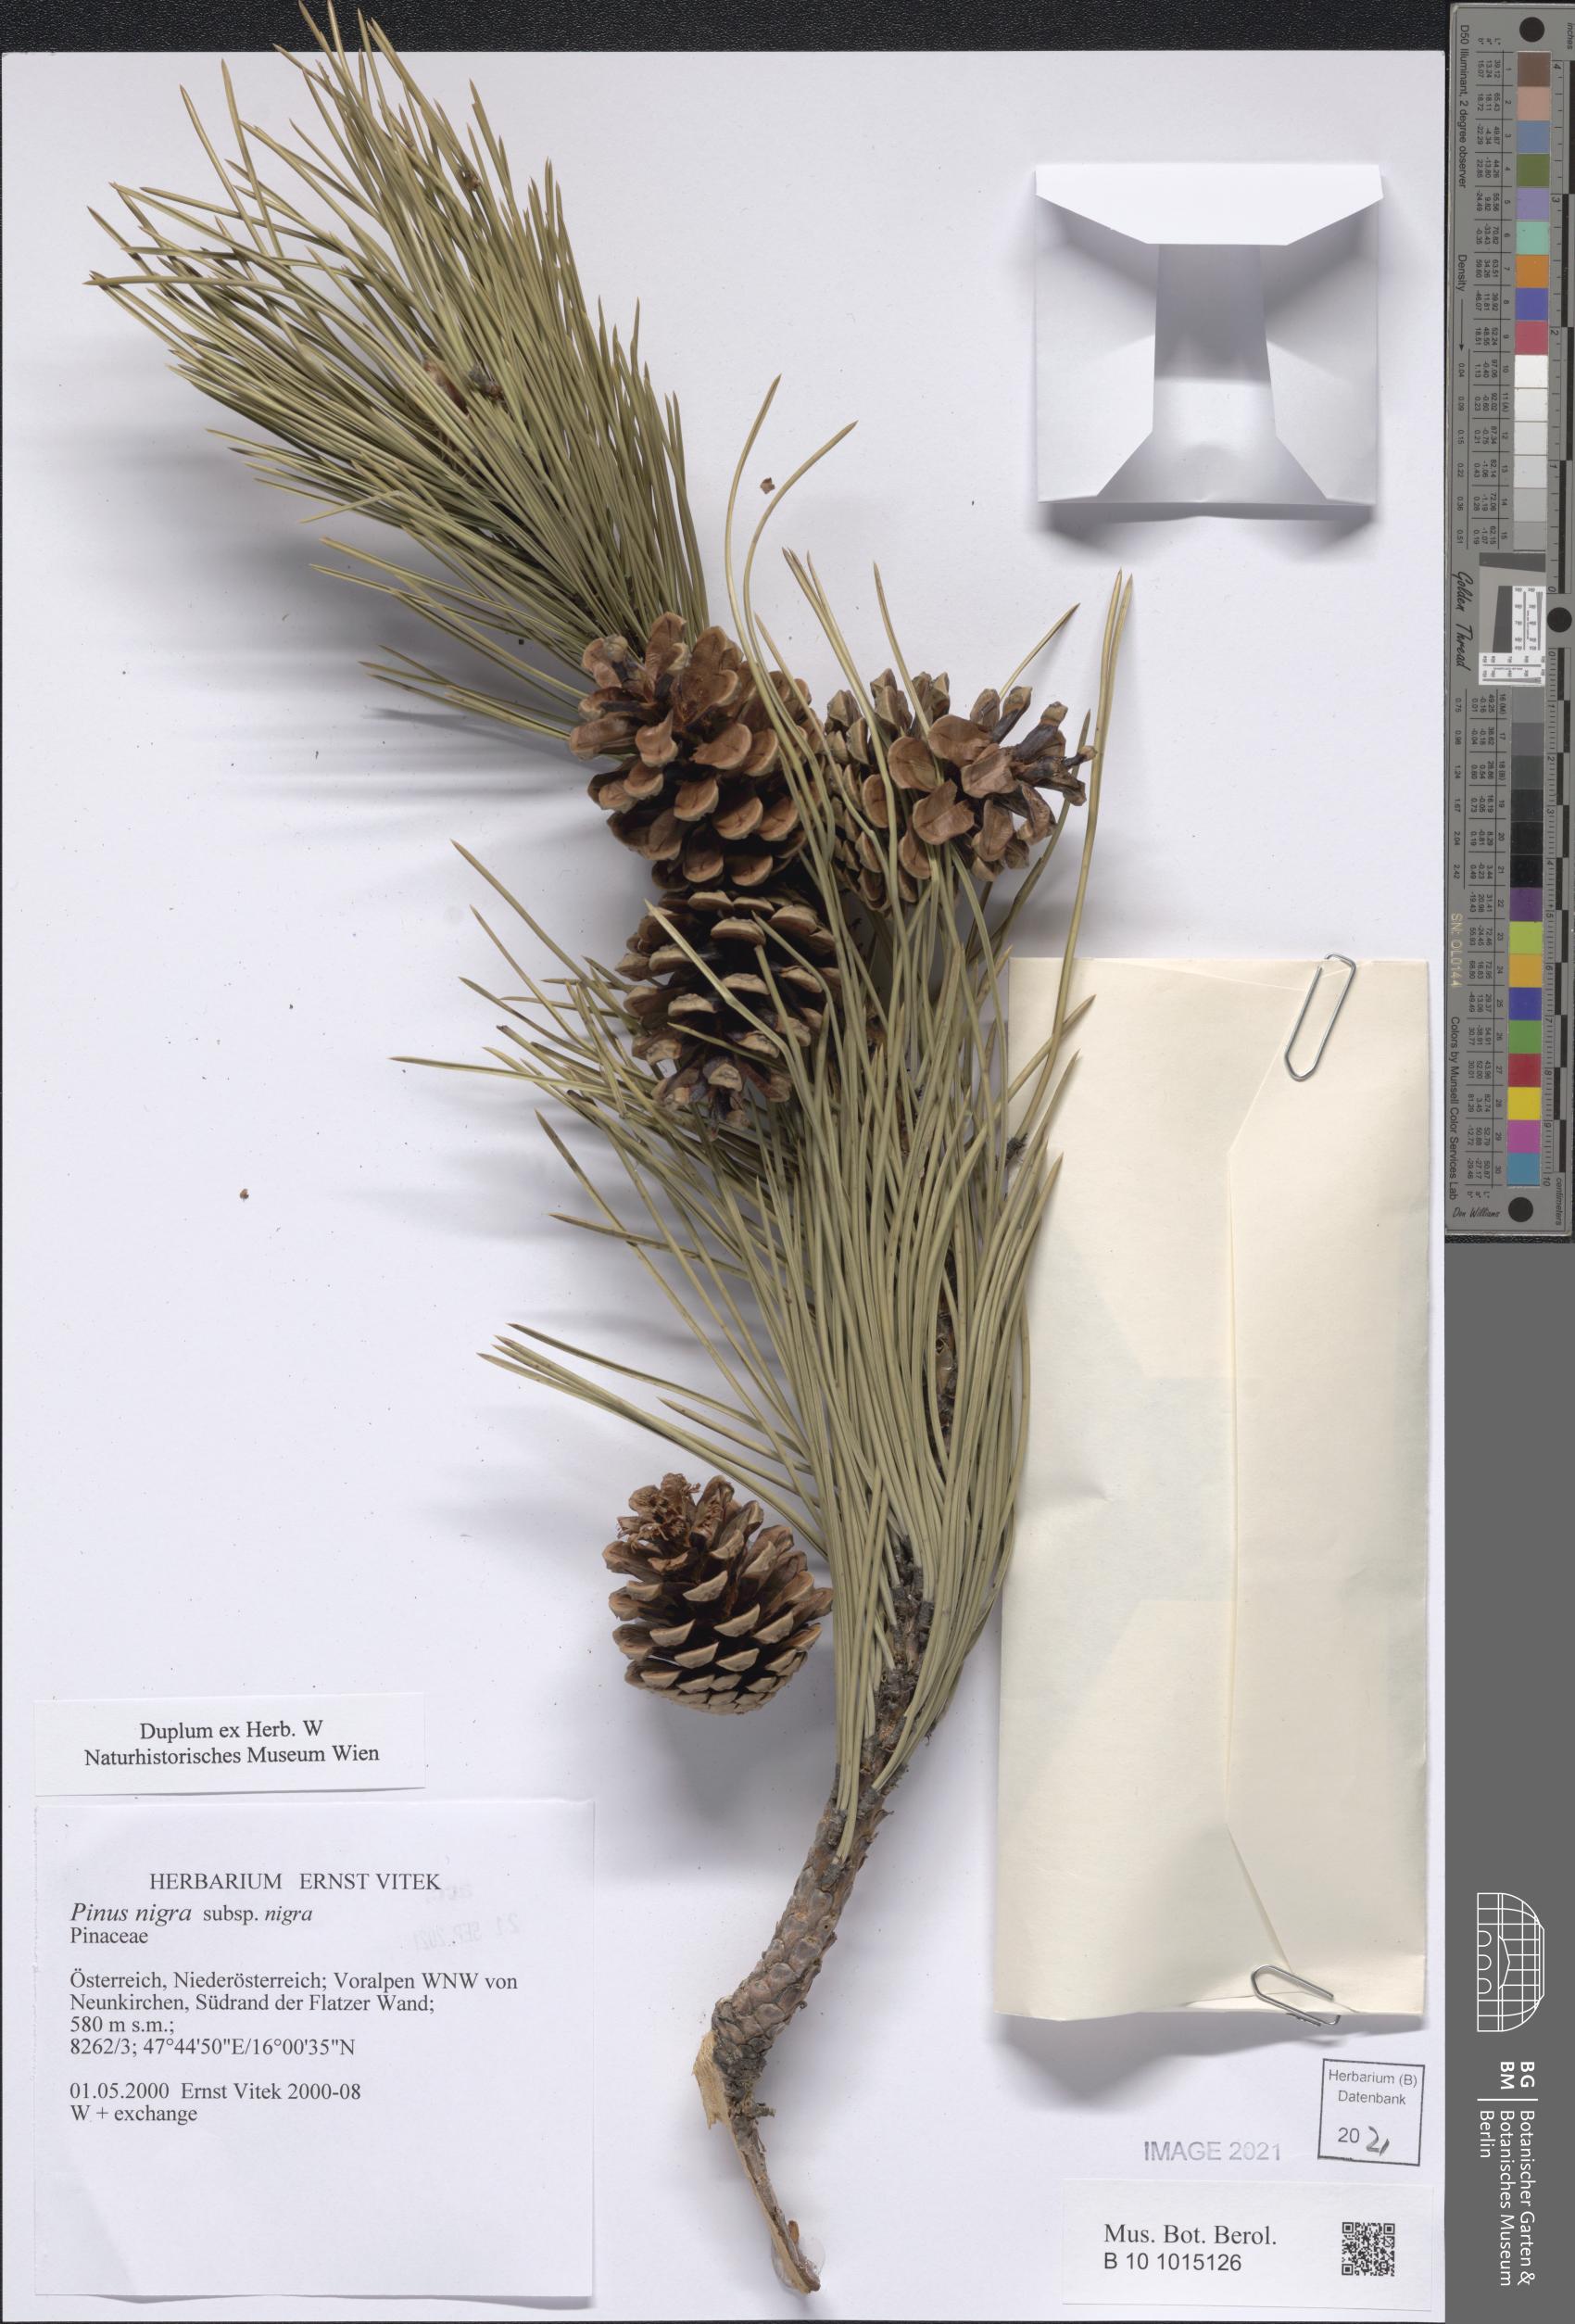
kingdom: Plantae
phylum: Tracheophyta
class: Pinopsida
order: Pinales
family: Pinaceae
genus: Pinus
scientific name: Pinus nigra
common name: Austrian pine
